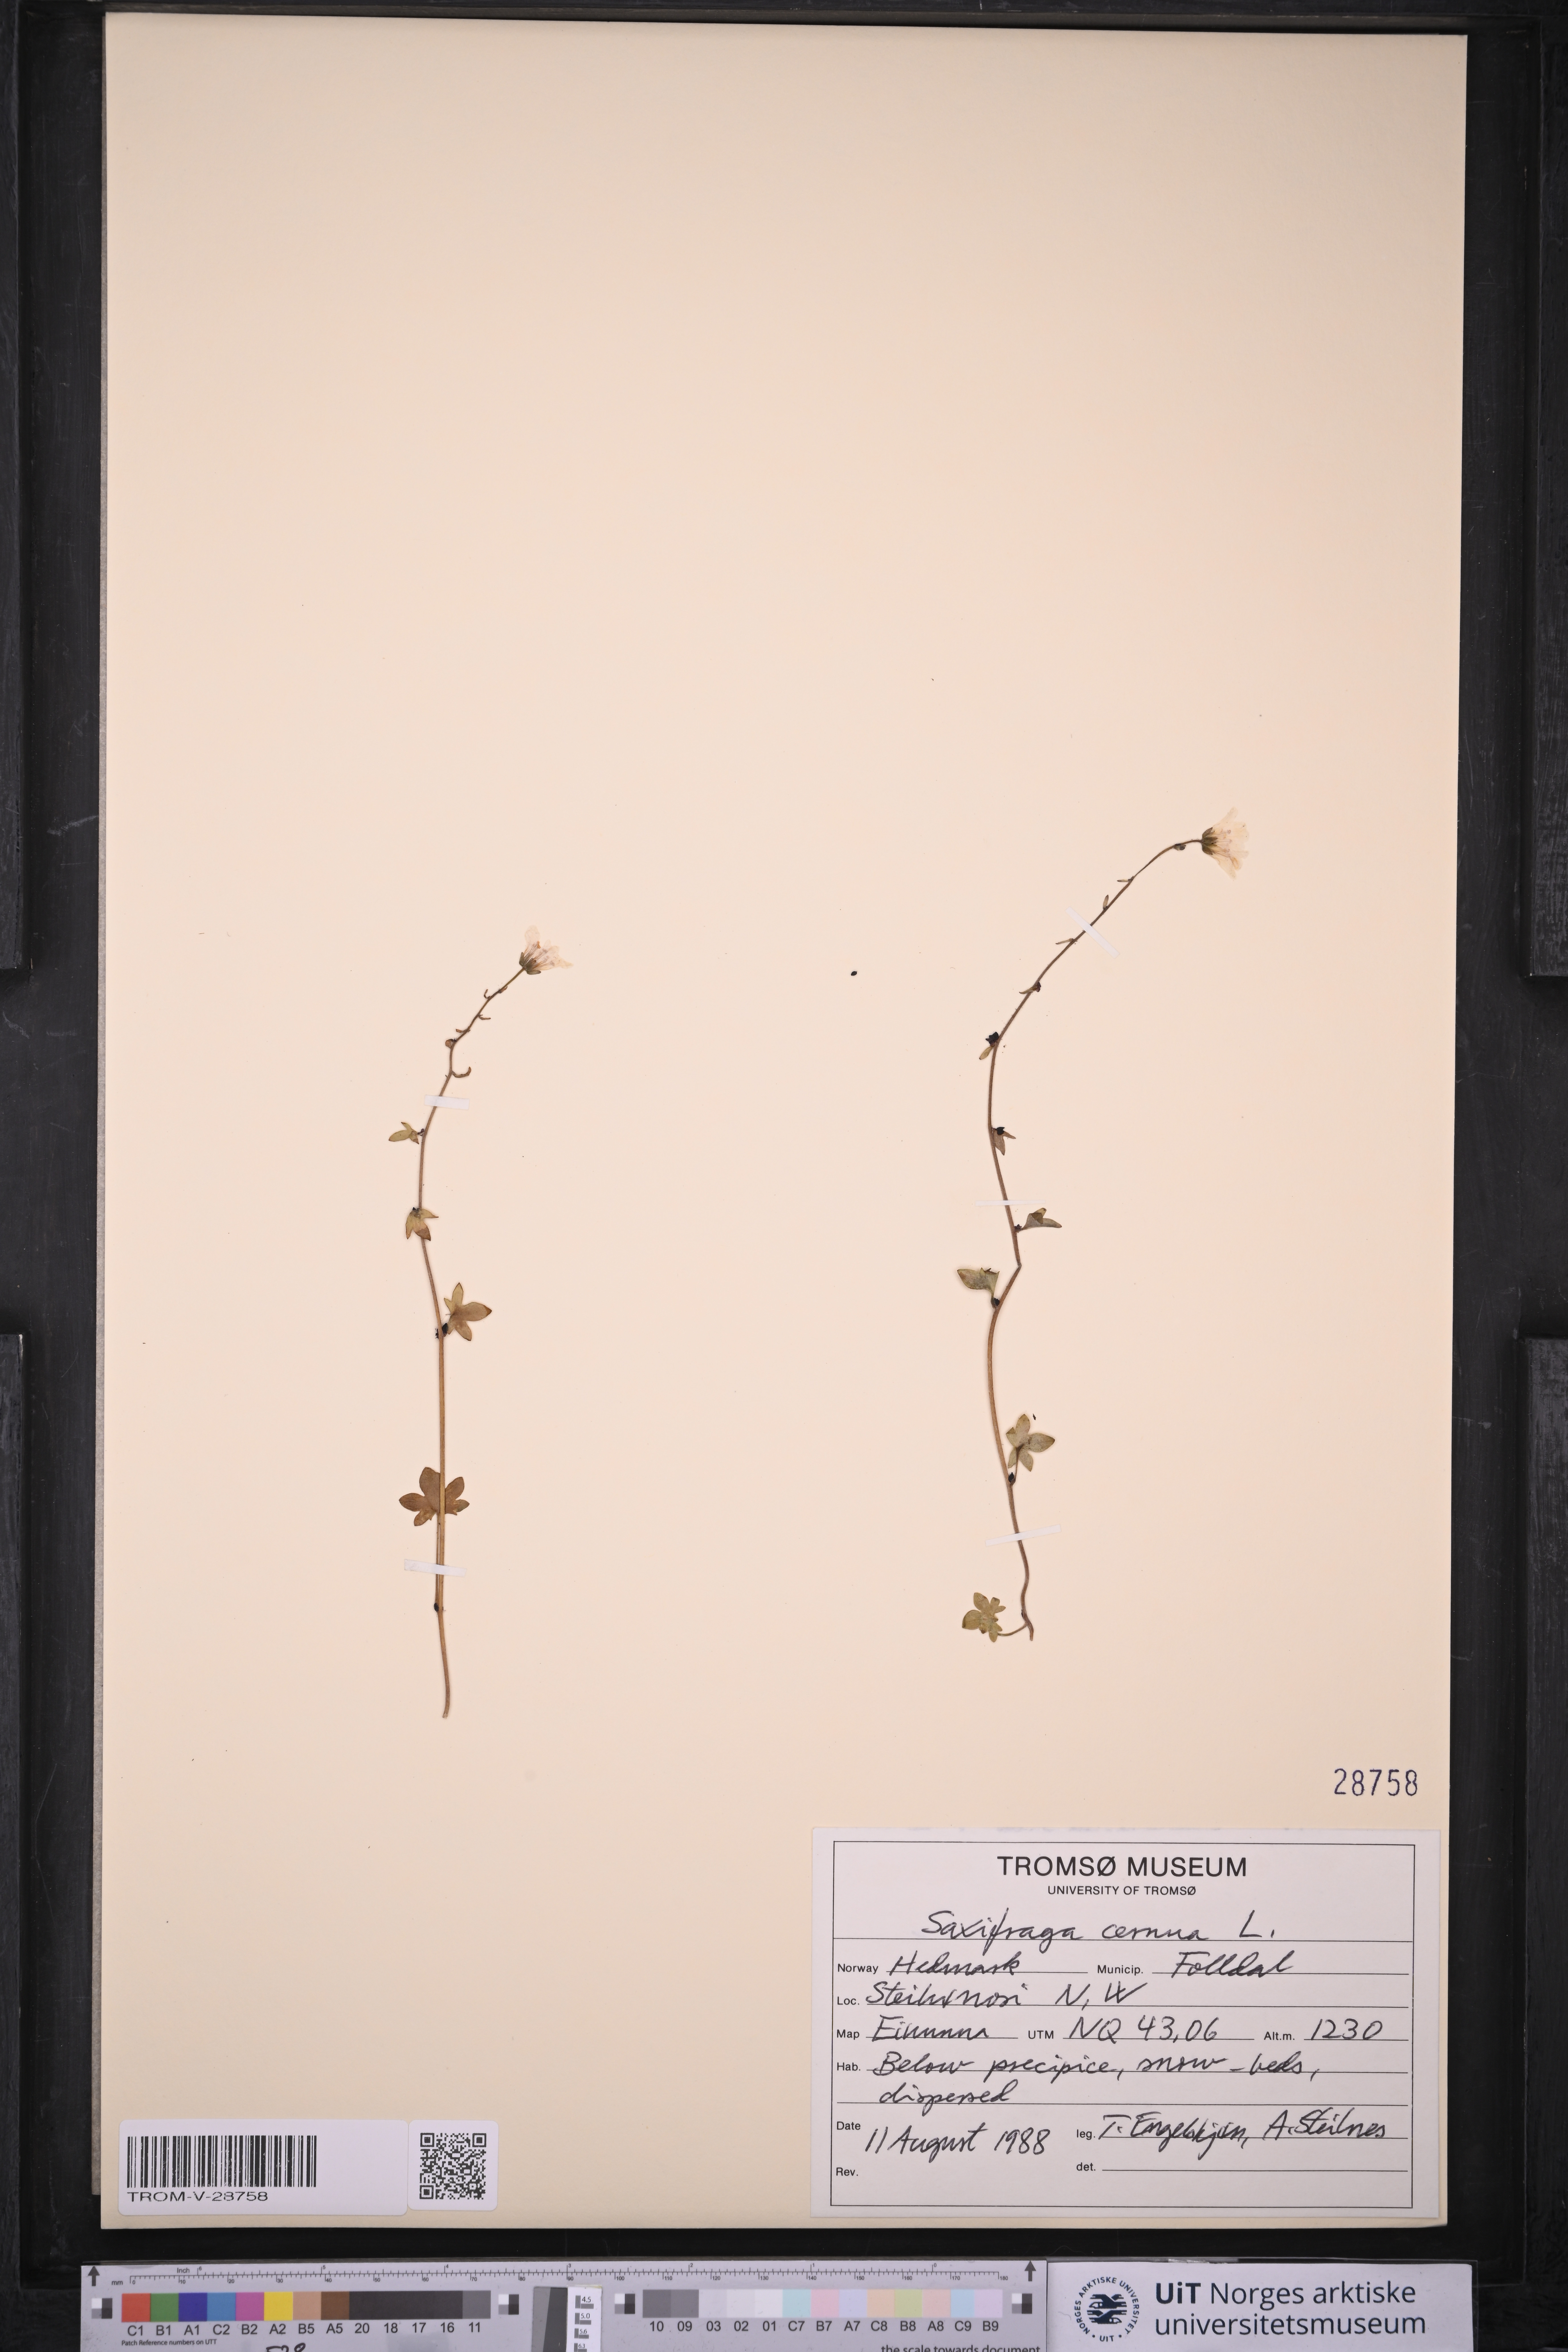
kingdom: Plantae
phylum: Tracheophyta
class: Magnoliopsida
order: Saxifragales
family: Saxifragaceae
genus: Saxifraga
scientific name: Saxifraga cernua
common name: Drooping saxifrage
